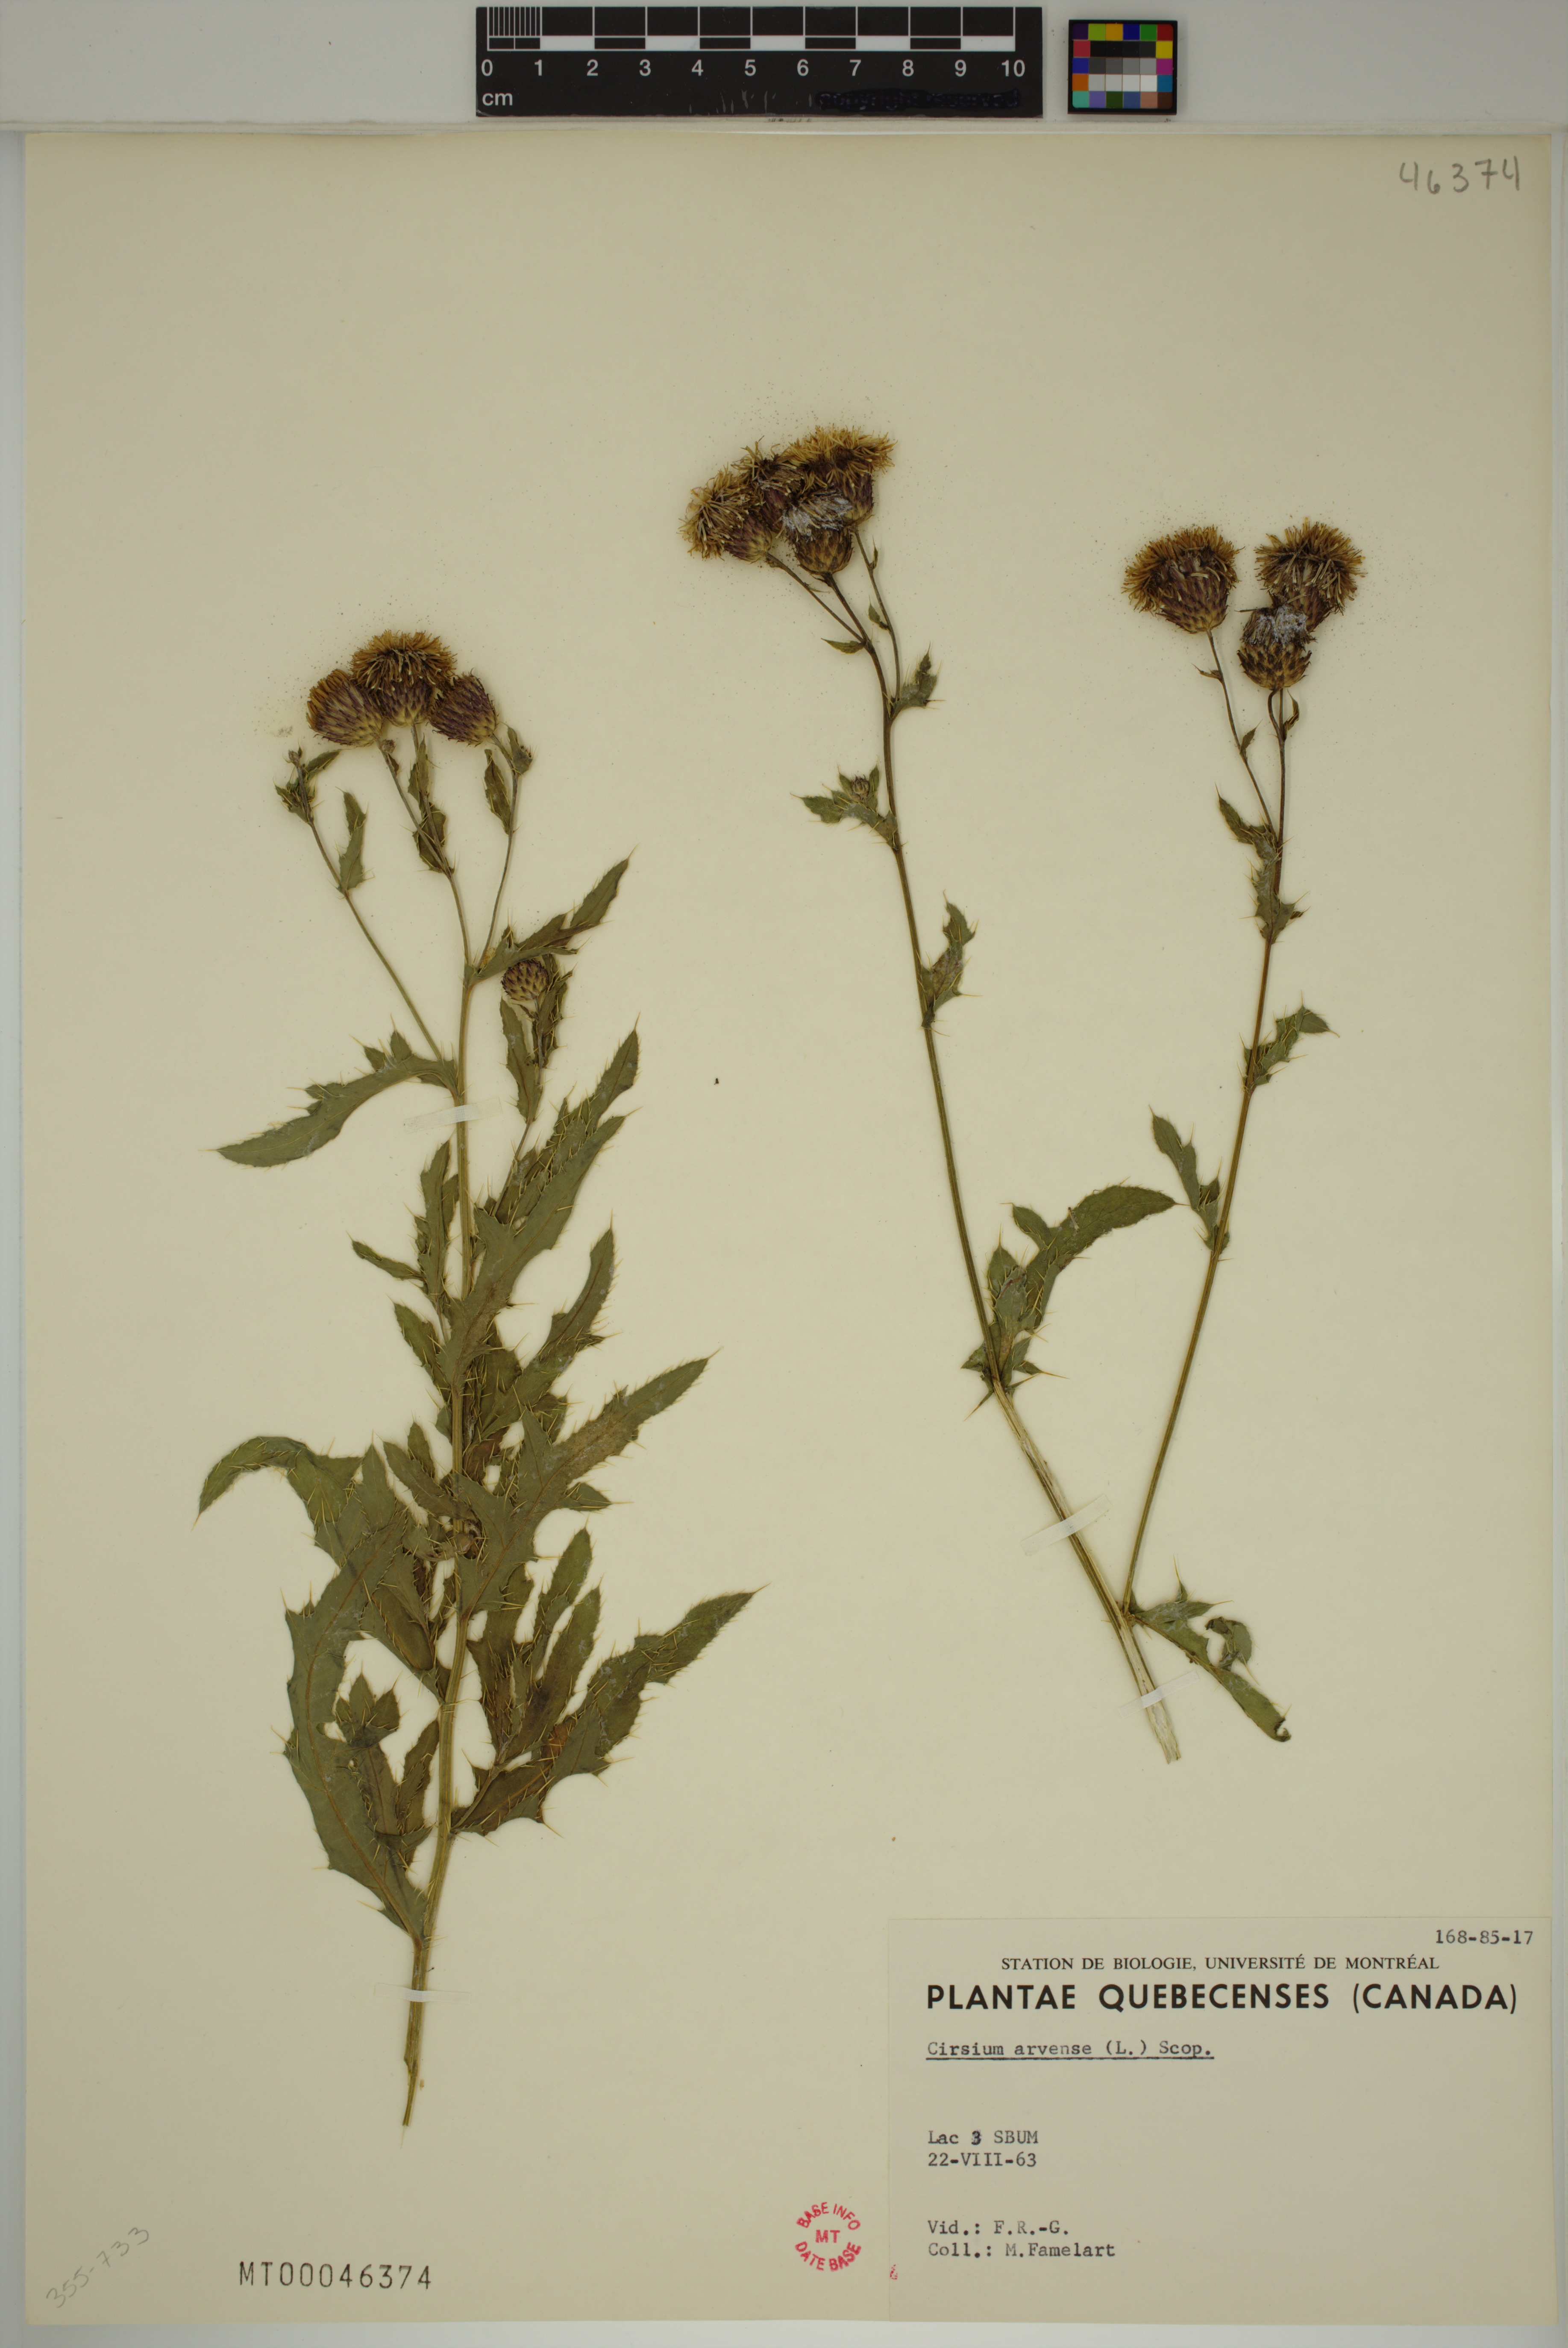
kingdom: Plantae
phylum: Tracheophyta
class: Magnoliopsida
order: Asterales
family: Asteraceae
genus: Cirsium
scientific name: Cirsium arvense
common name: Creeping thistle
